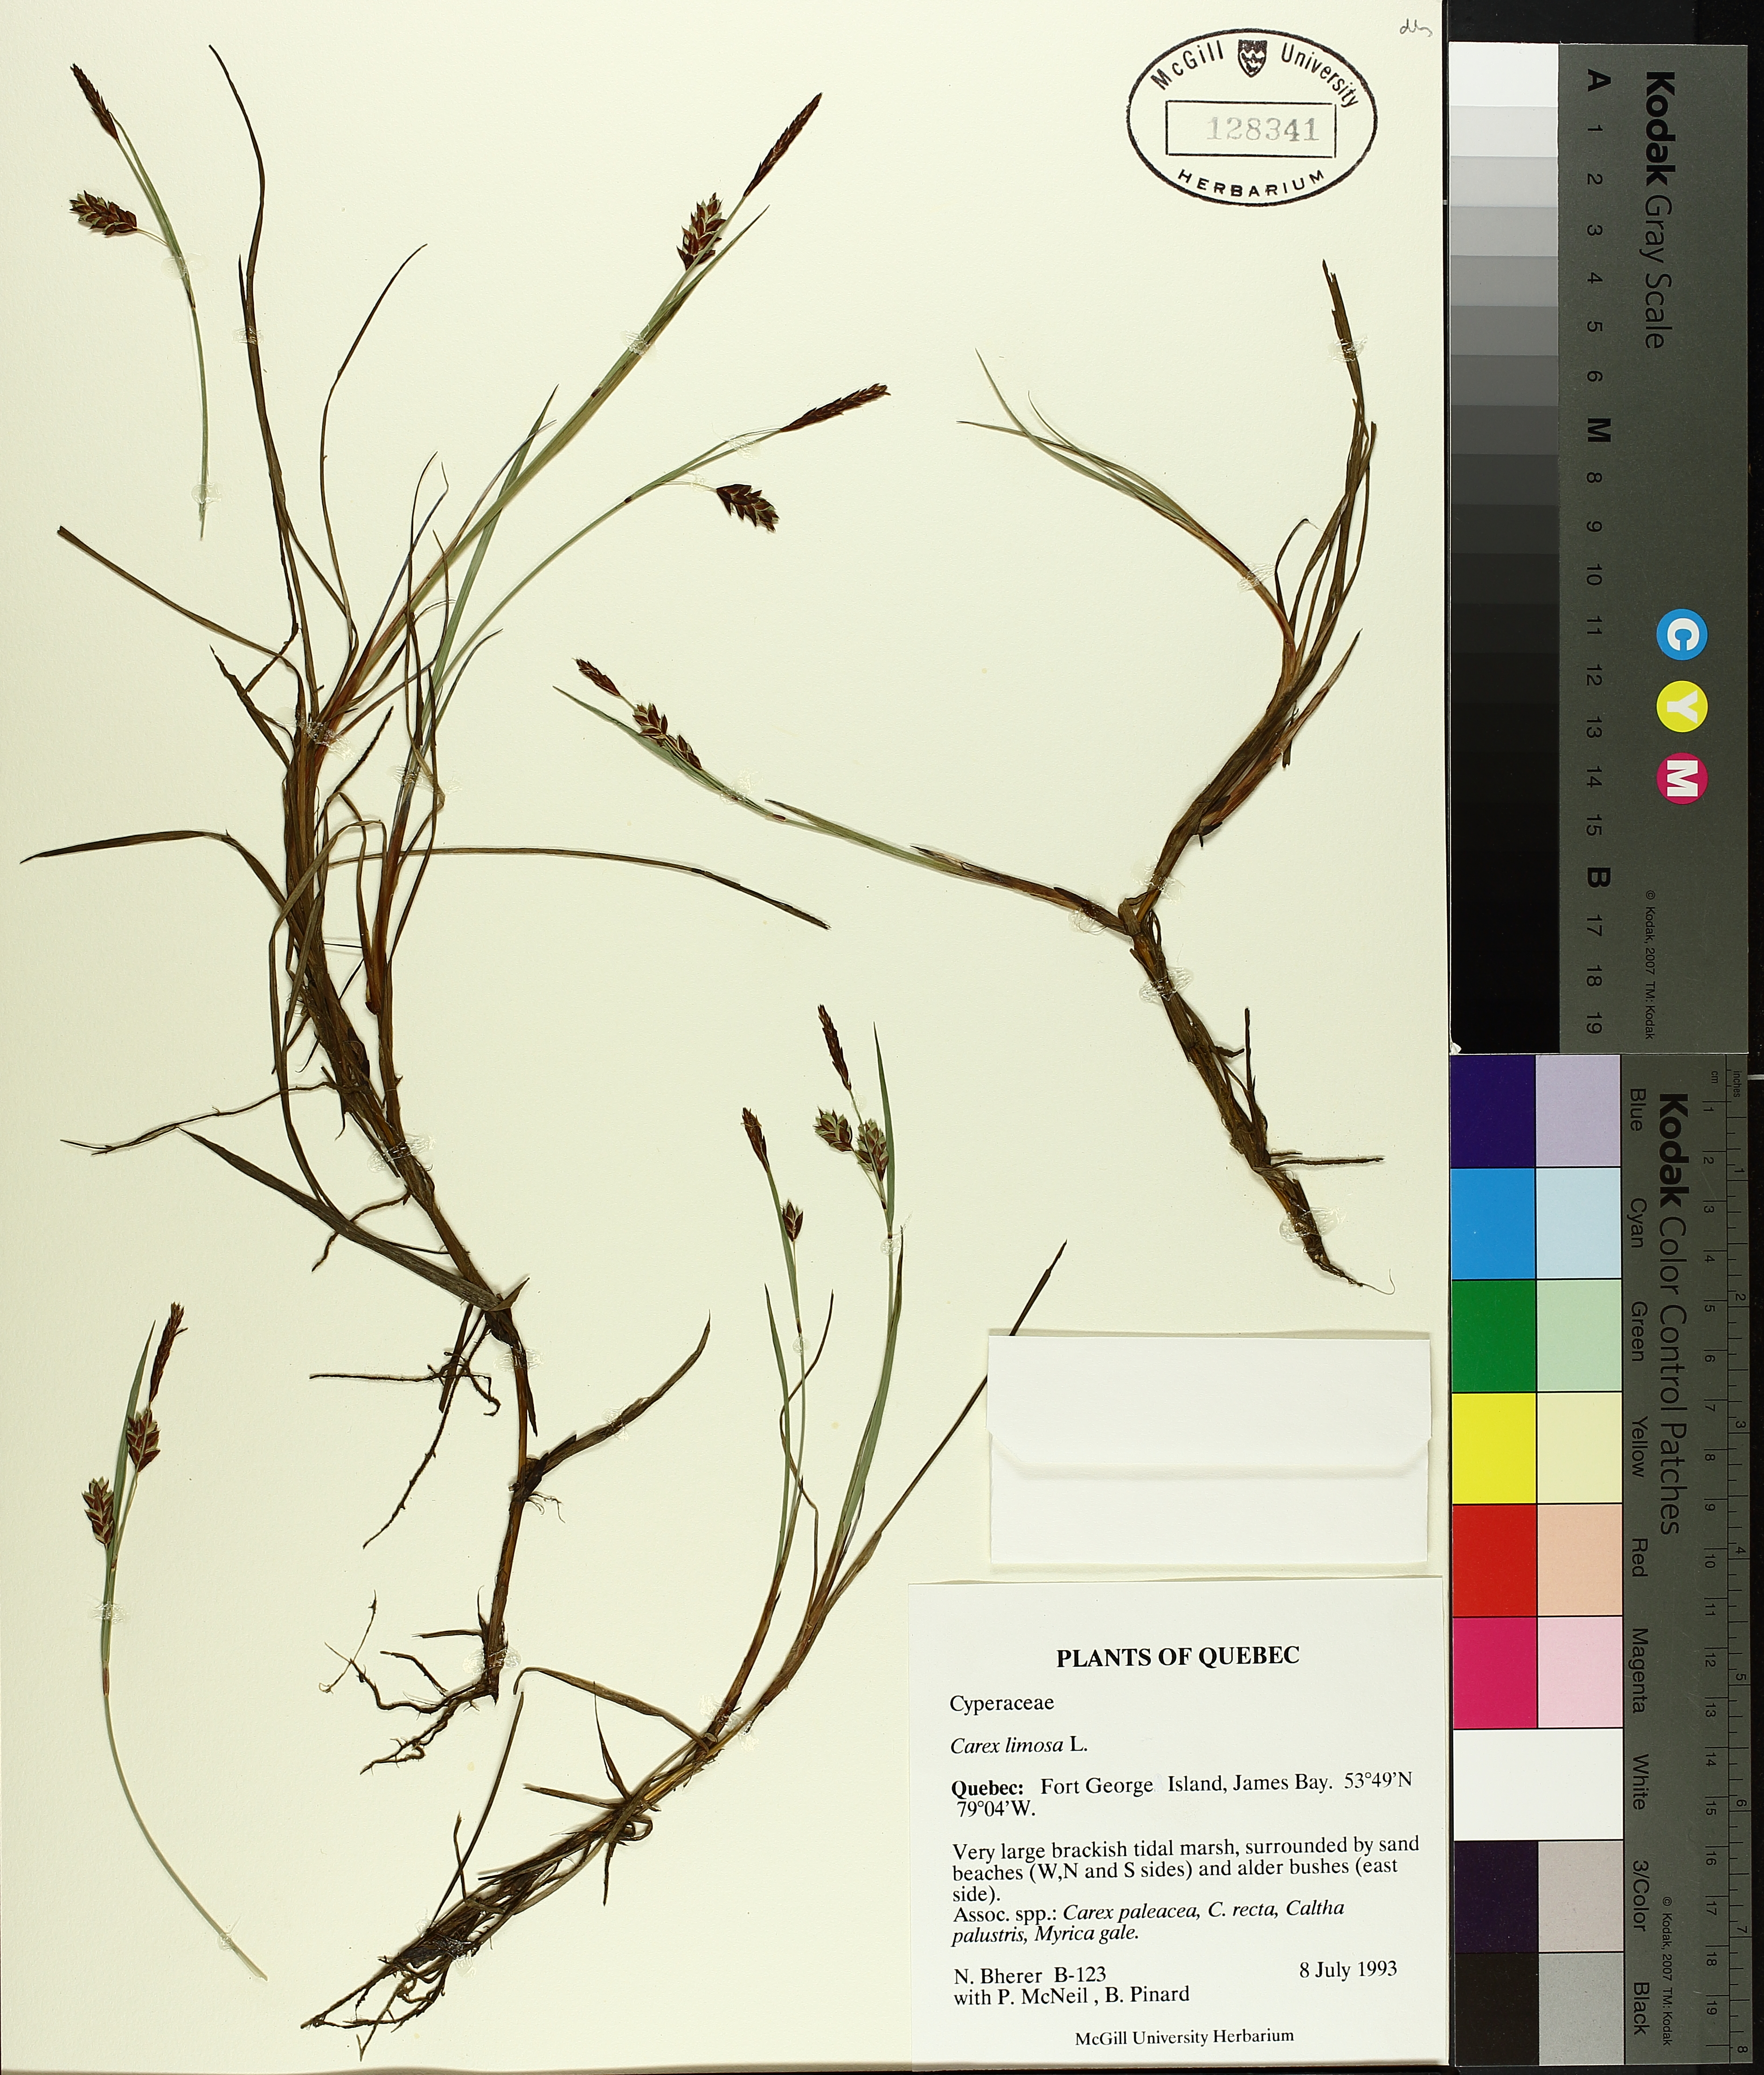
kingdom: Plantae
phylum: Tracheophyta
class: Liliopsida
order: Poales
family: Cyperaceae
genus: Carex
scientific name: Carex limosa
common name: Bog sedge
